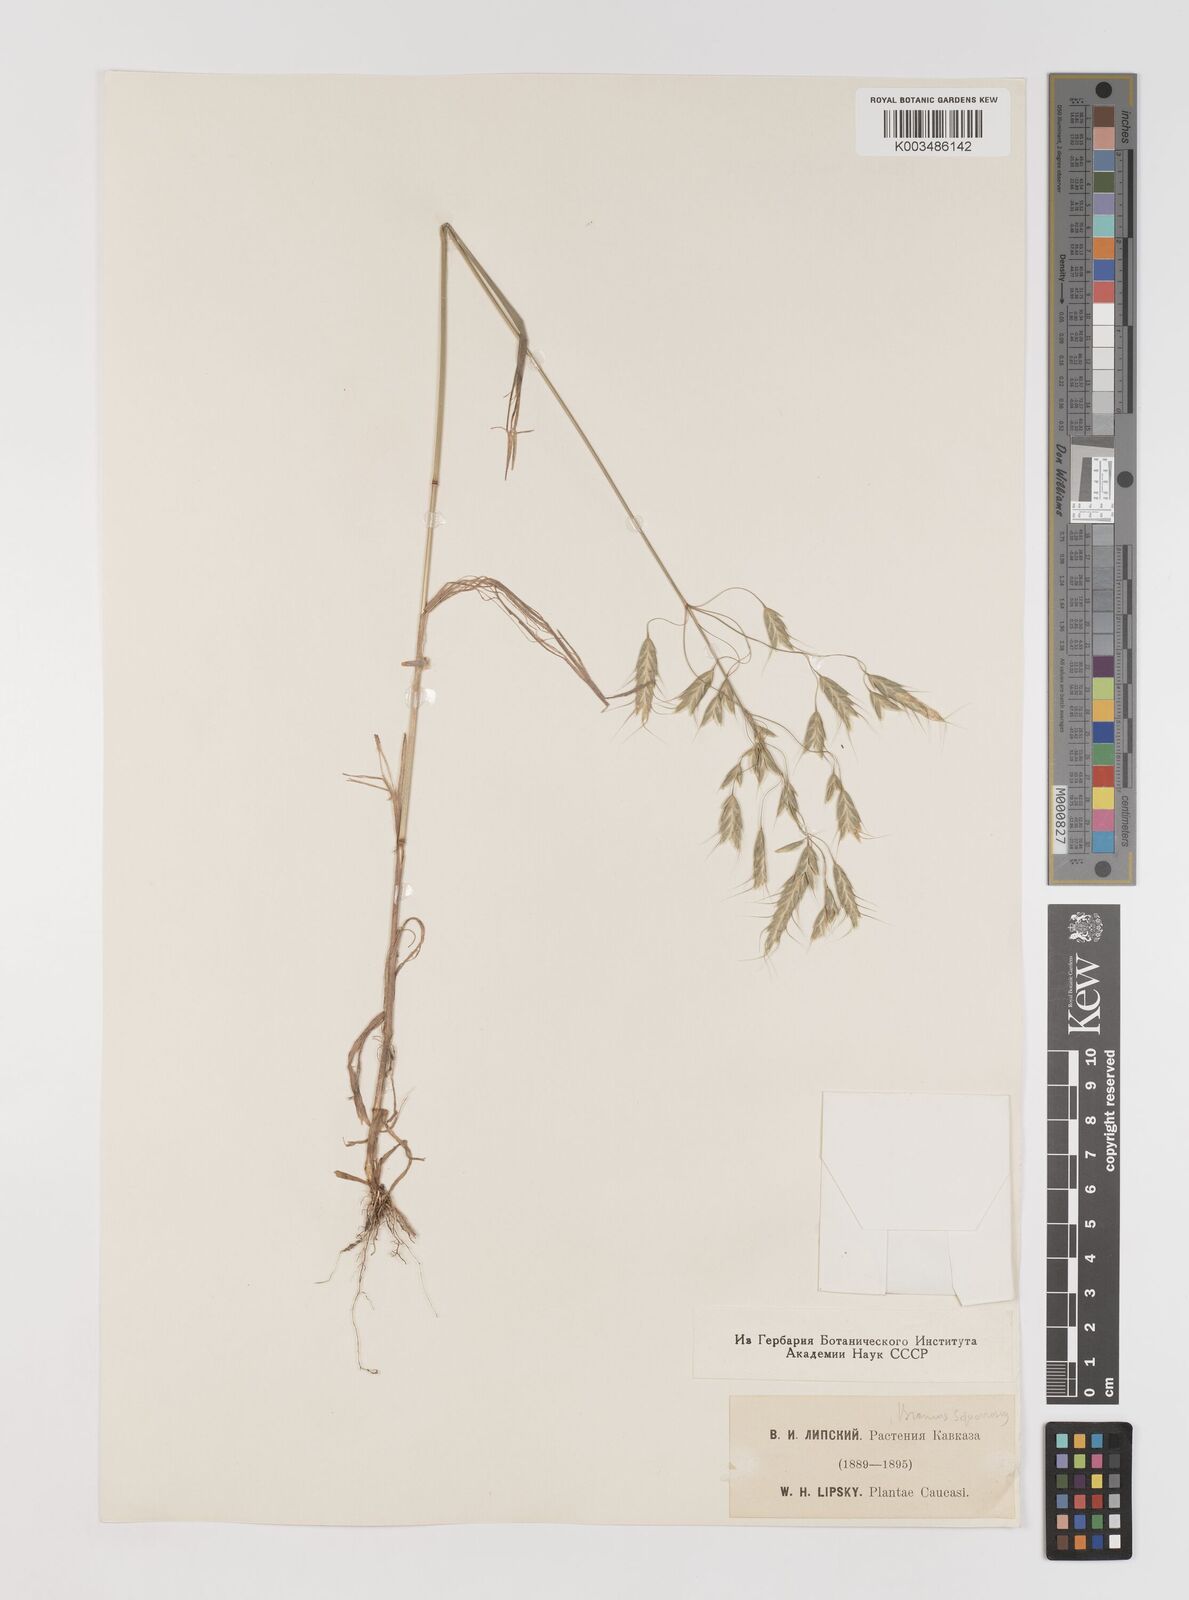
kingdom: Plantae
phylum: Tracheophyta
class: Liliopsida
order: Poales
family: Poaceae
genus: Bromus
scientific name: Bromus squarrosus
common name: Corn brome
